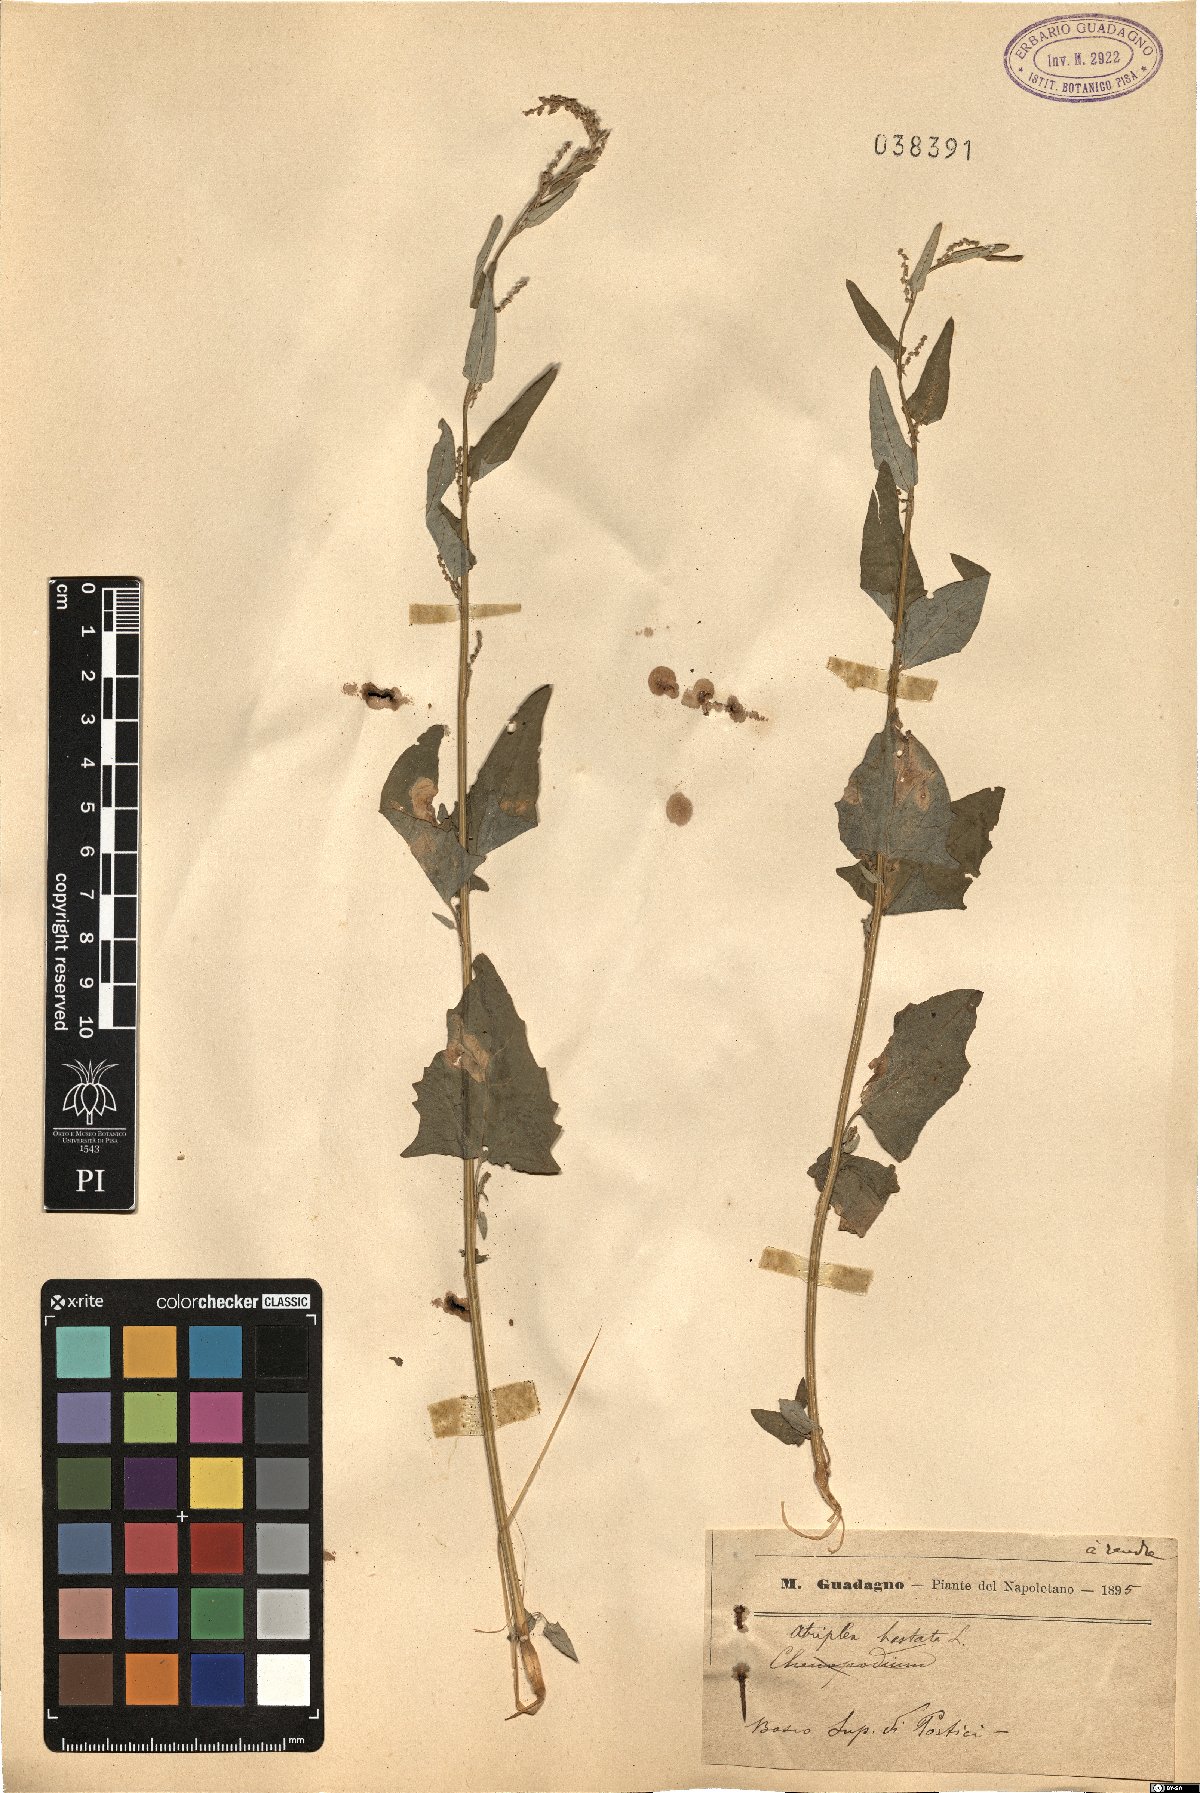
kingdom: Plantae
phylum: Tracheophyta
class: Magnoliopsida
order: Caryophyllales
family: Amaranthaceae
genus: Atriplex
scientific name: Atriplex calotheca
